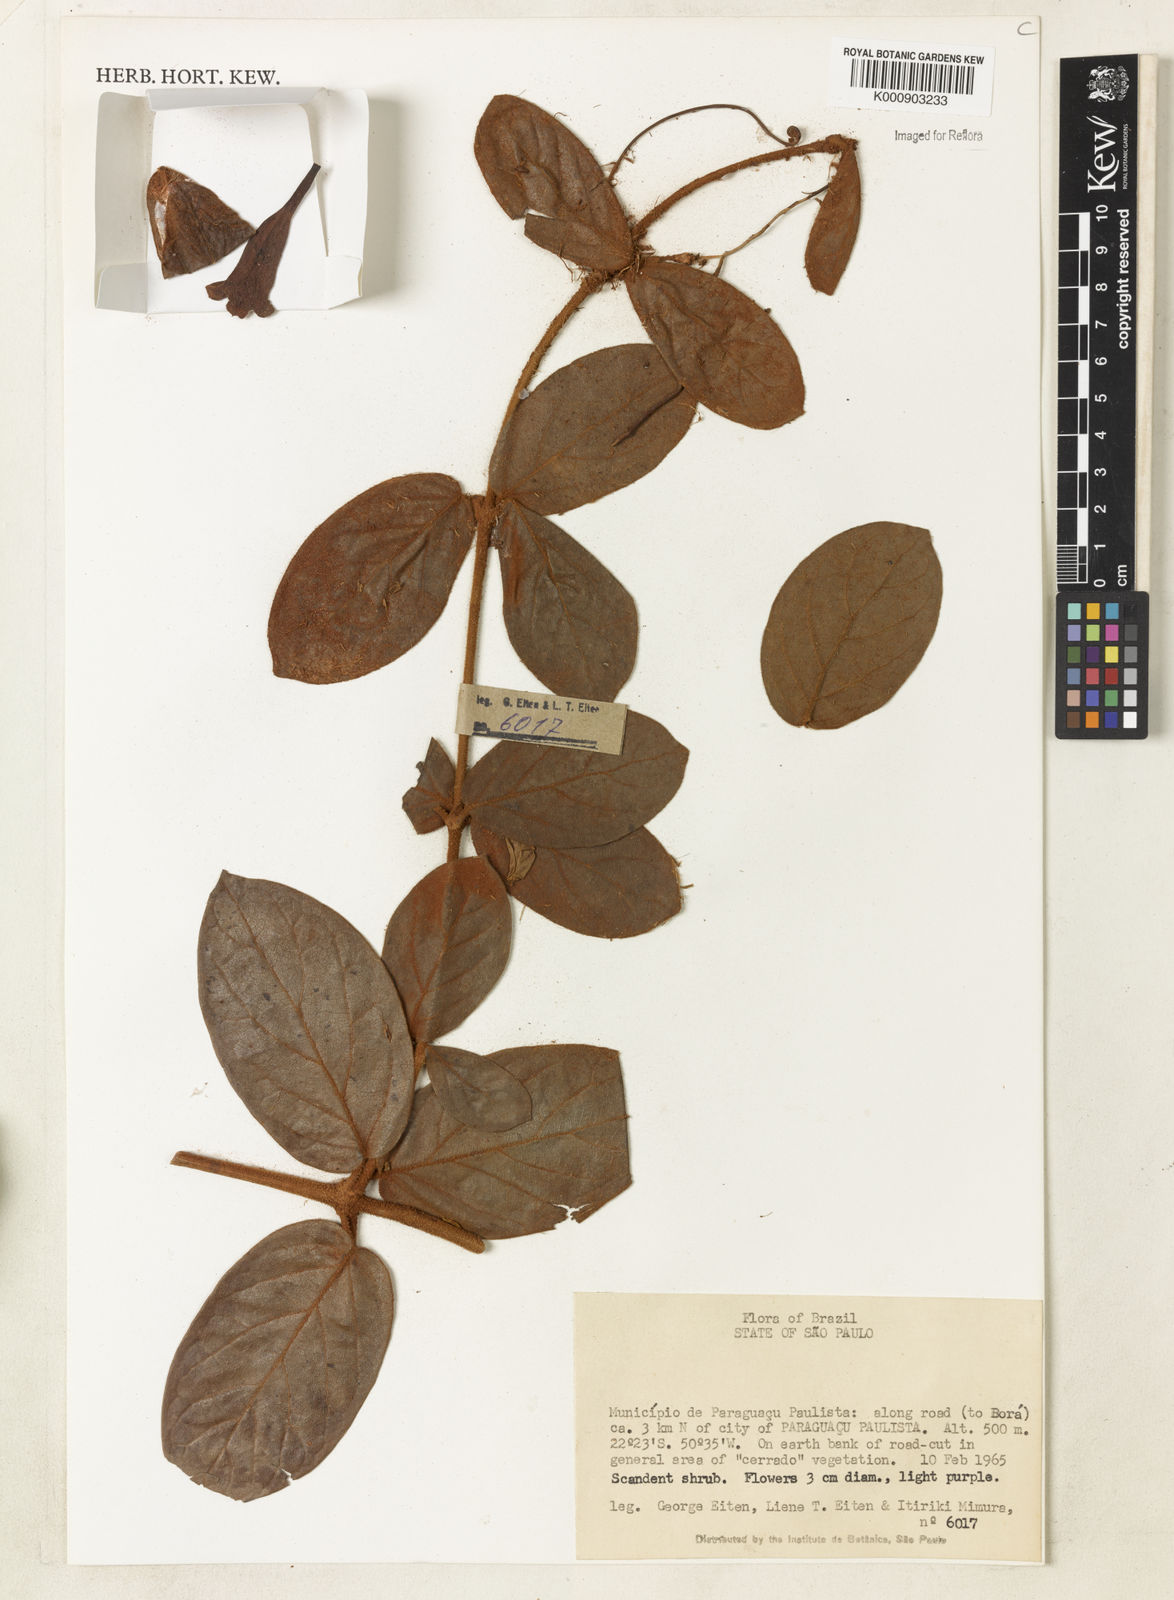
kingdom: Plantae
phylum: Tracheophyta
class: Magnoliopsida
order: Lamiales
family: Bignoniaceae
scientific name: Bignoniaceae
